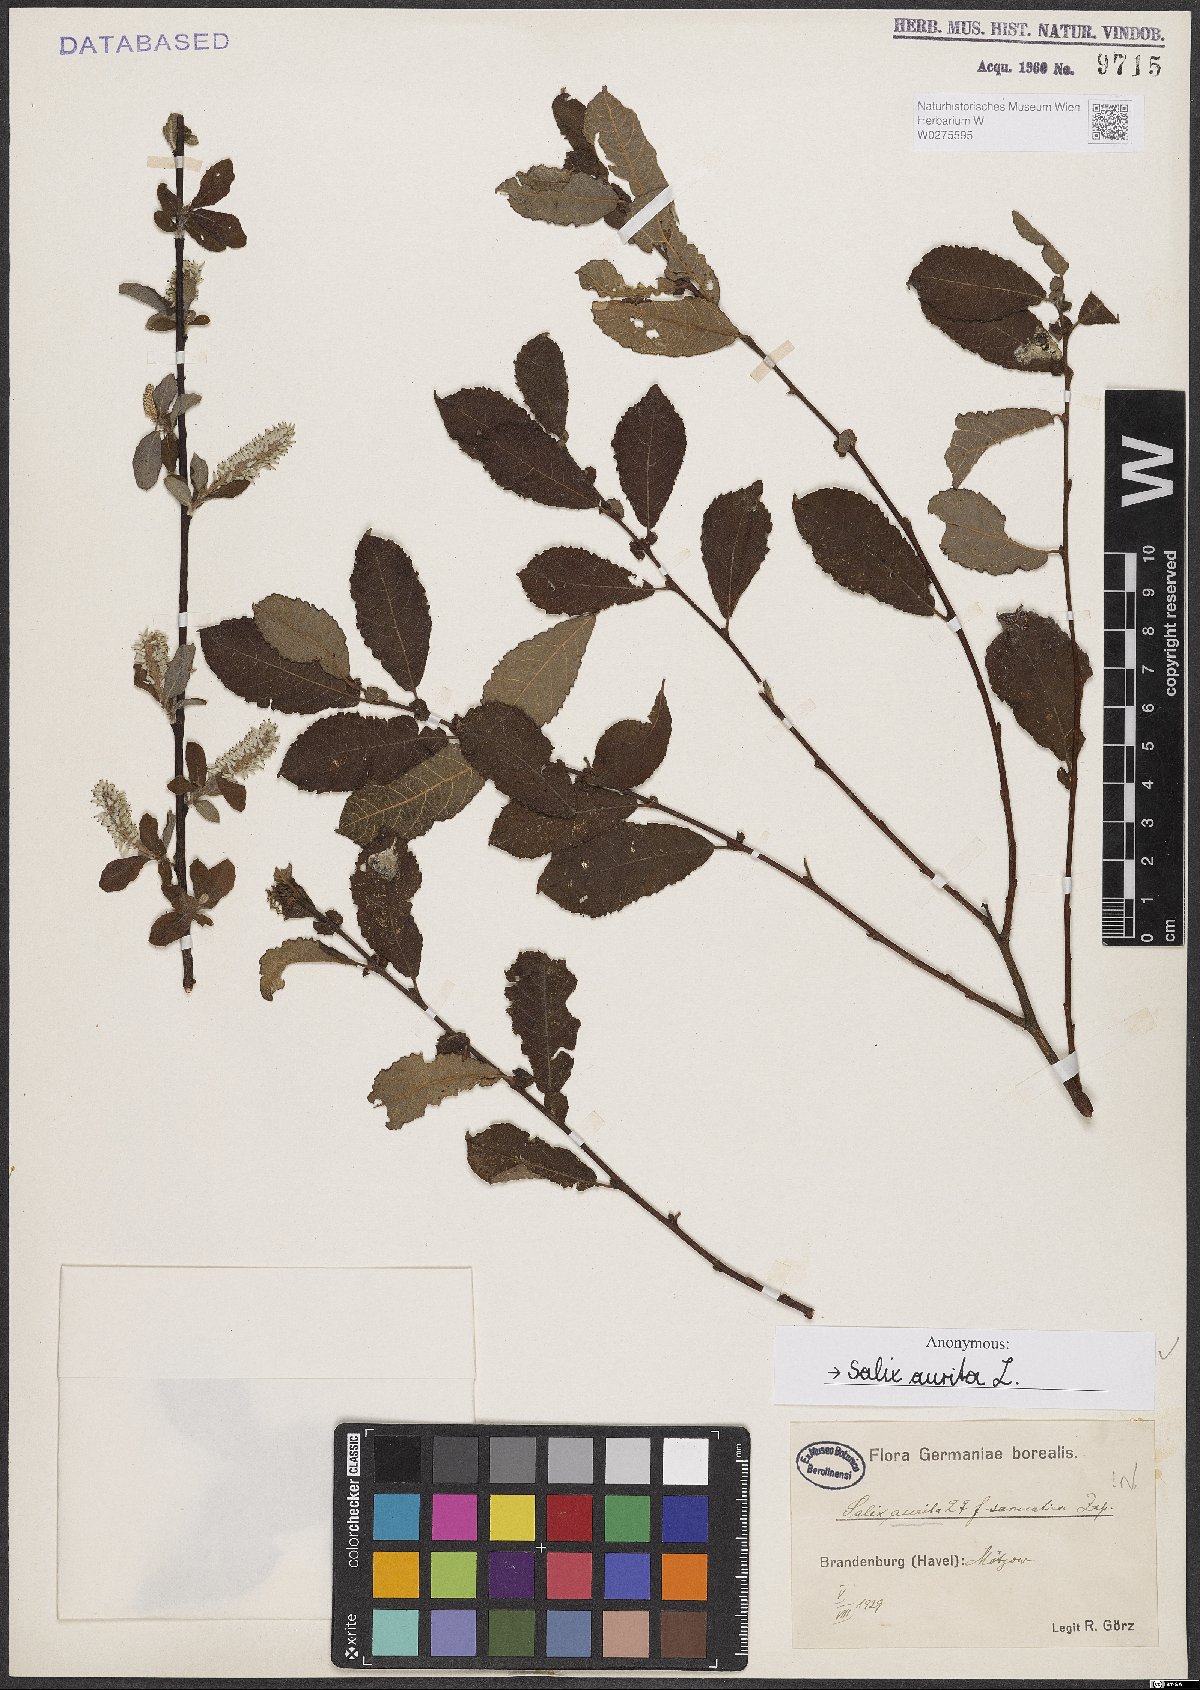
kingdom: Plantae
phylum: Tracheophyta
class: Magnoliopsida
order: Malpighiales
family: Salicaceae
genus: Salix
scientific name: Salix aurita
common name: Eared willow
